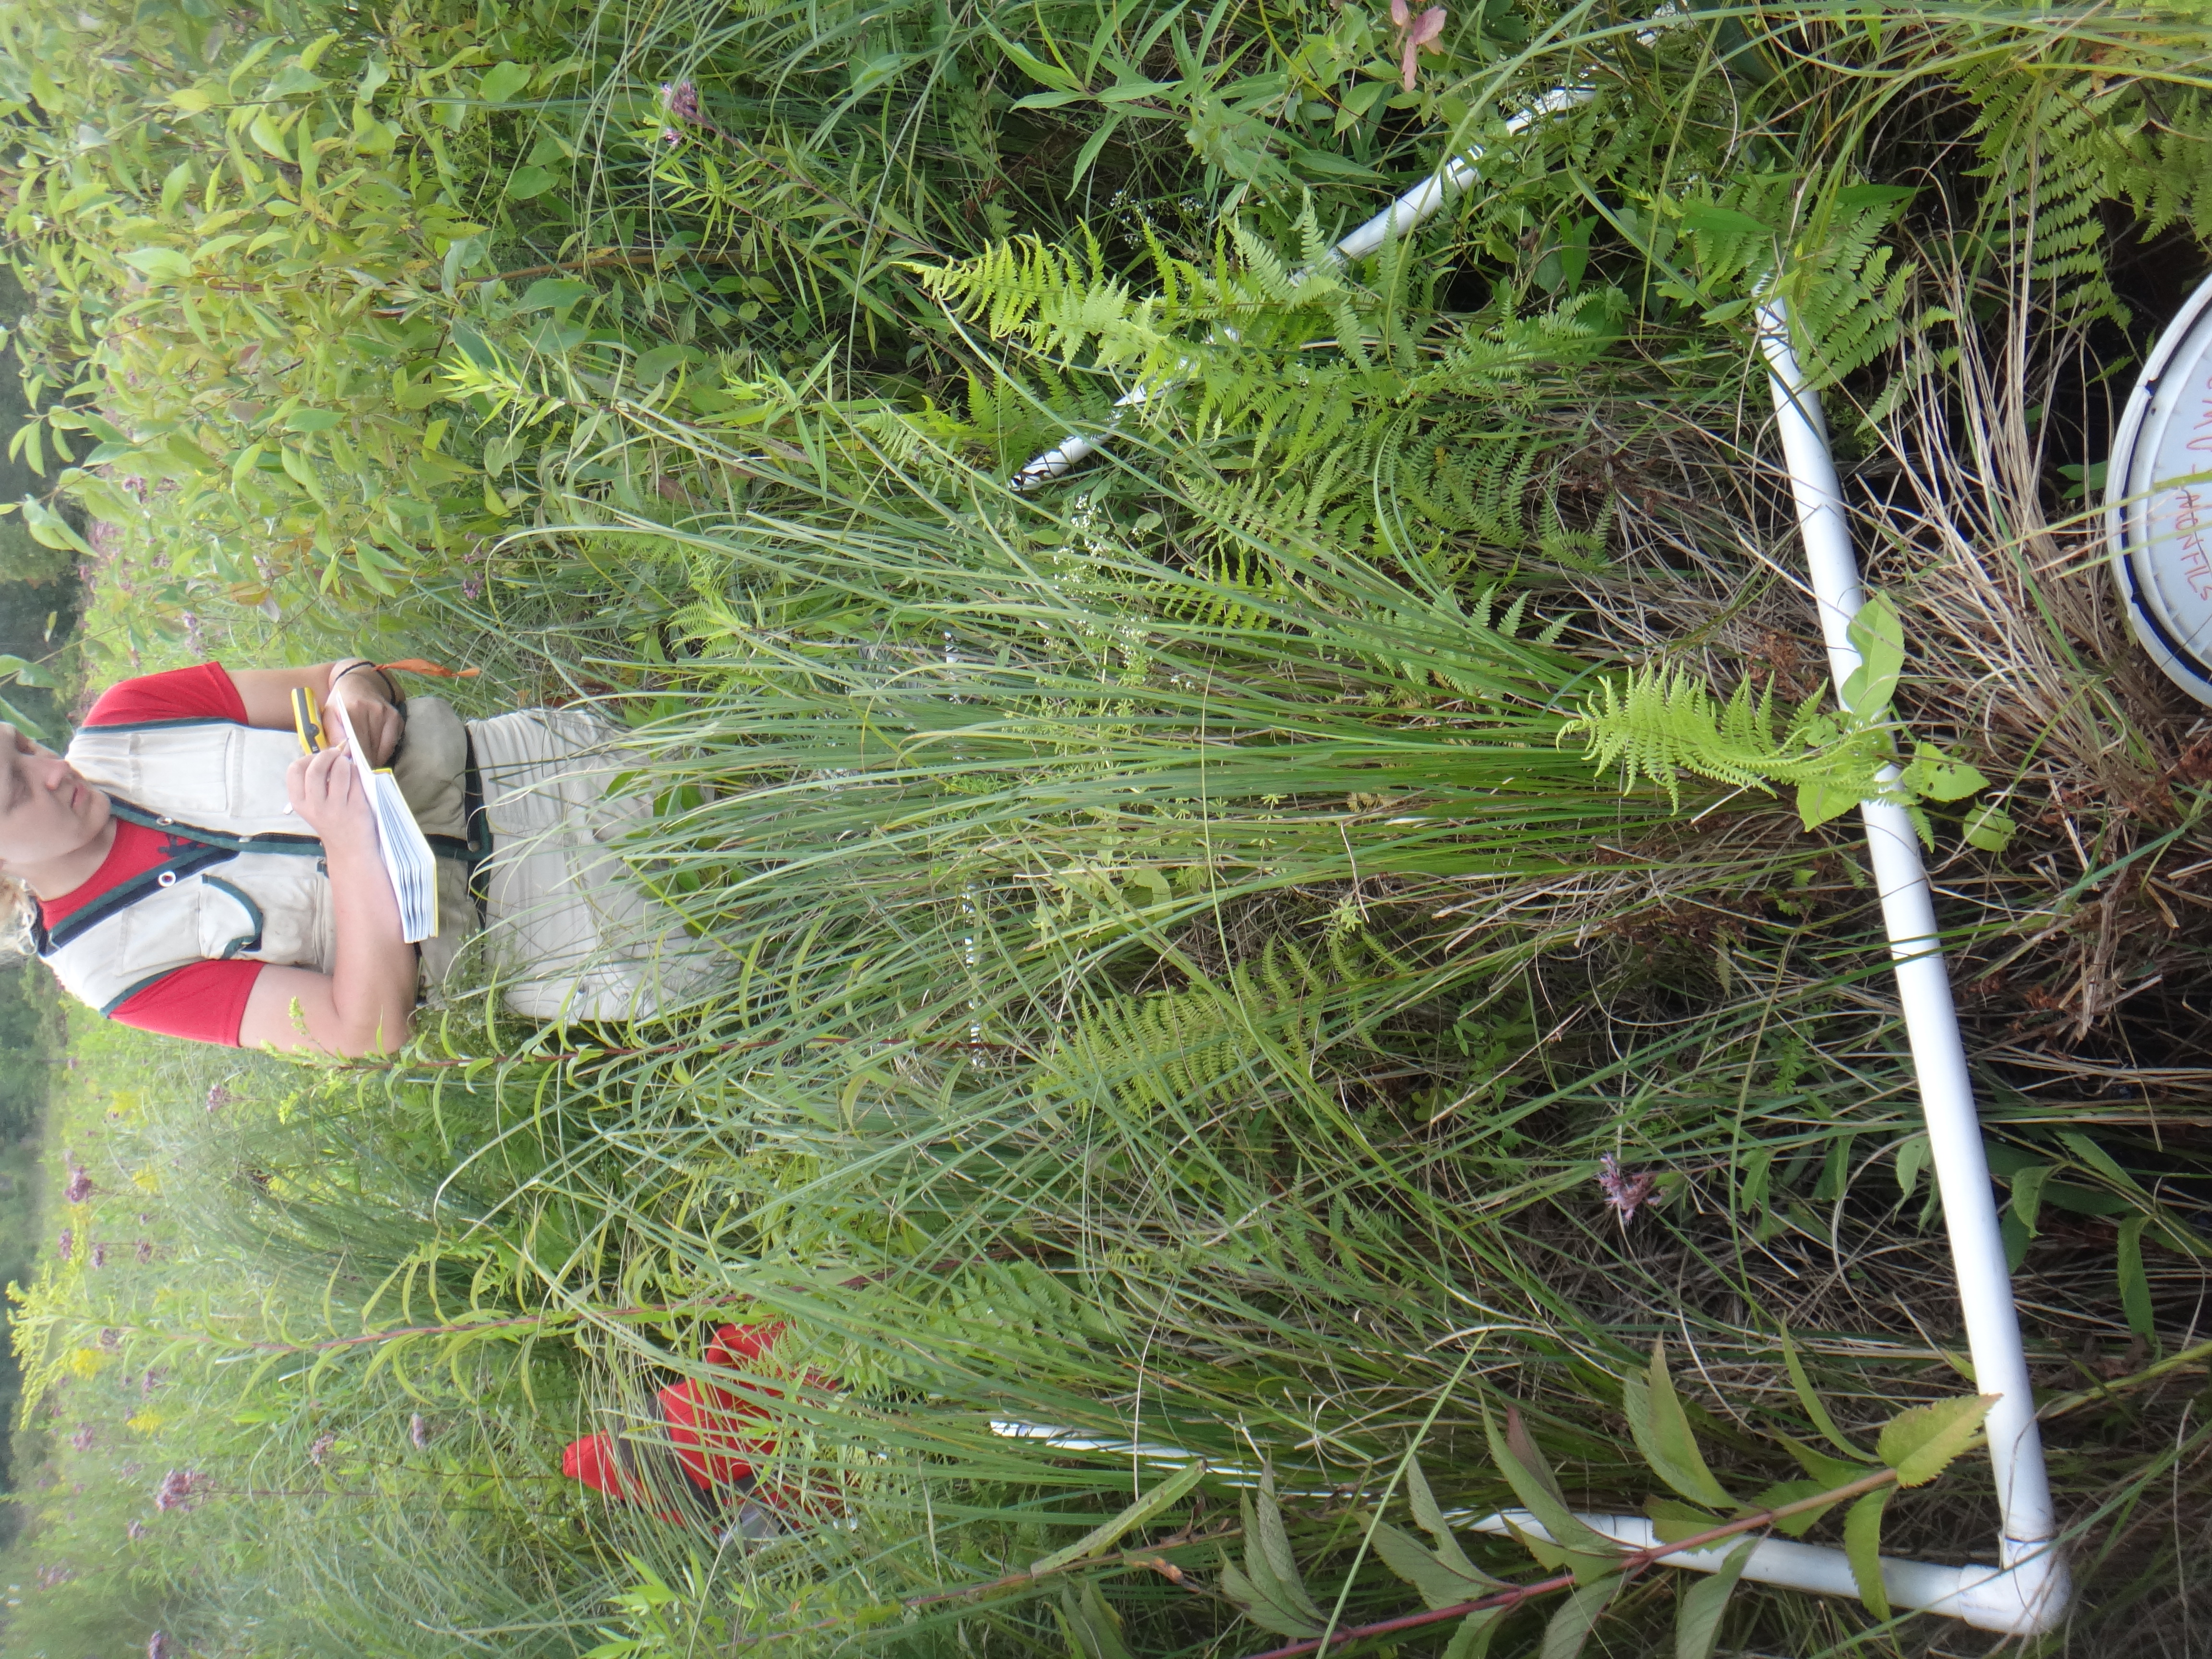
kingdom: Plantae
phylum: Tracheophyta
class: Magnoliopsida
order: Gentianales
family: Rubiaceae
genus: Galium
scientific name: Galium asprellum
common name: Rough bedstraw
